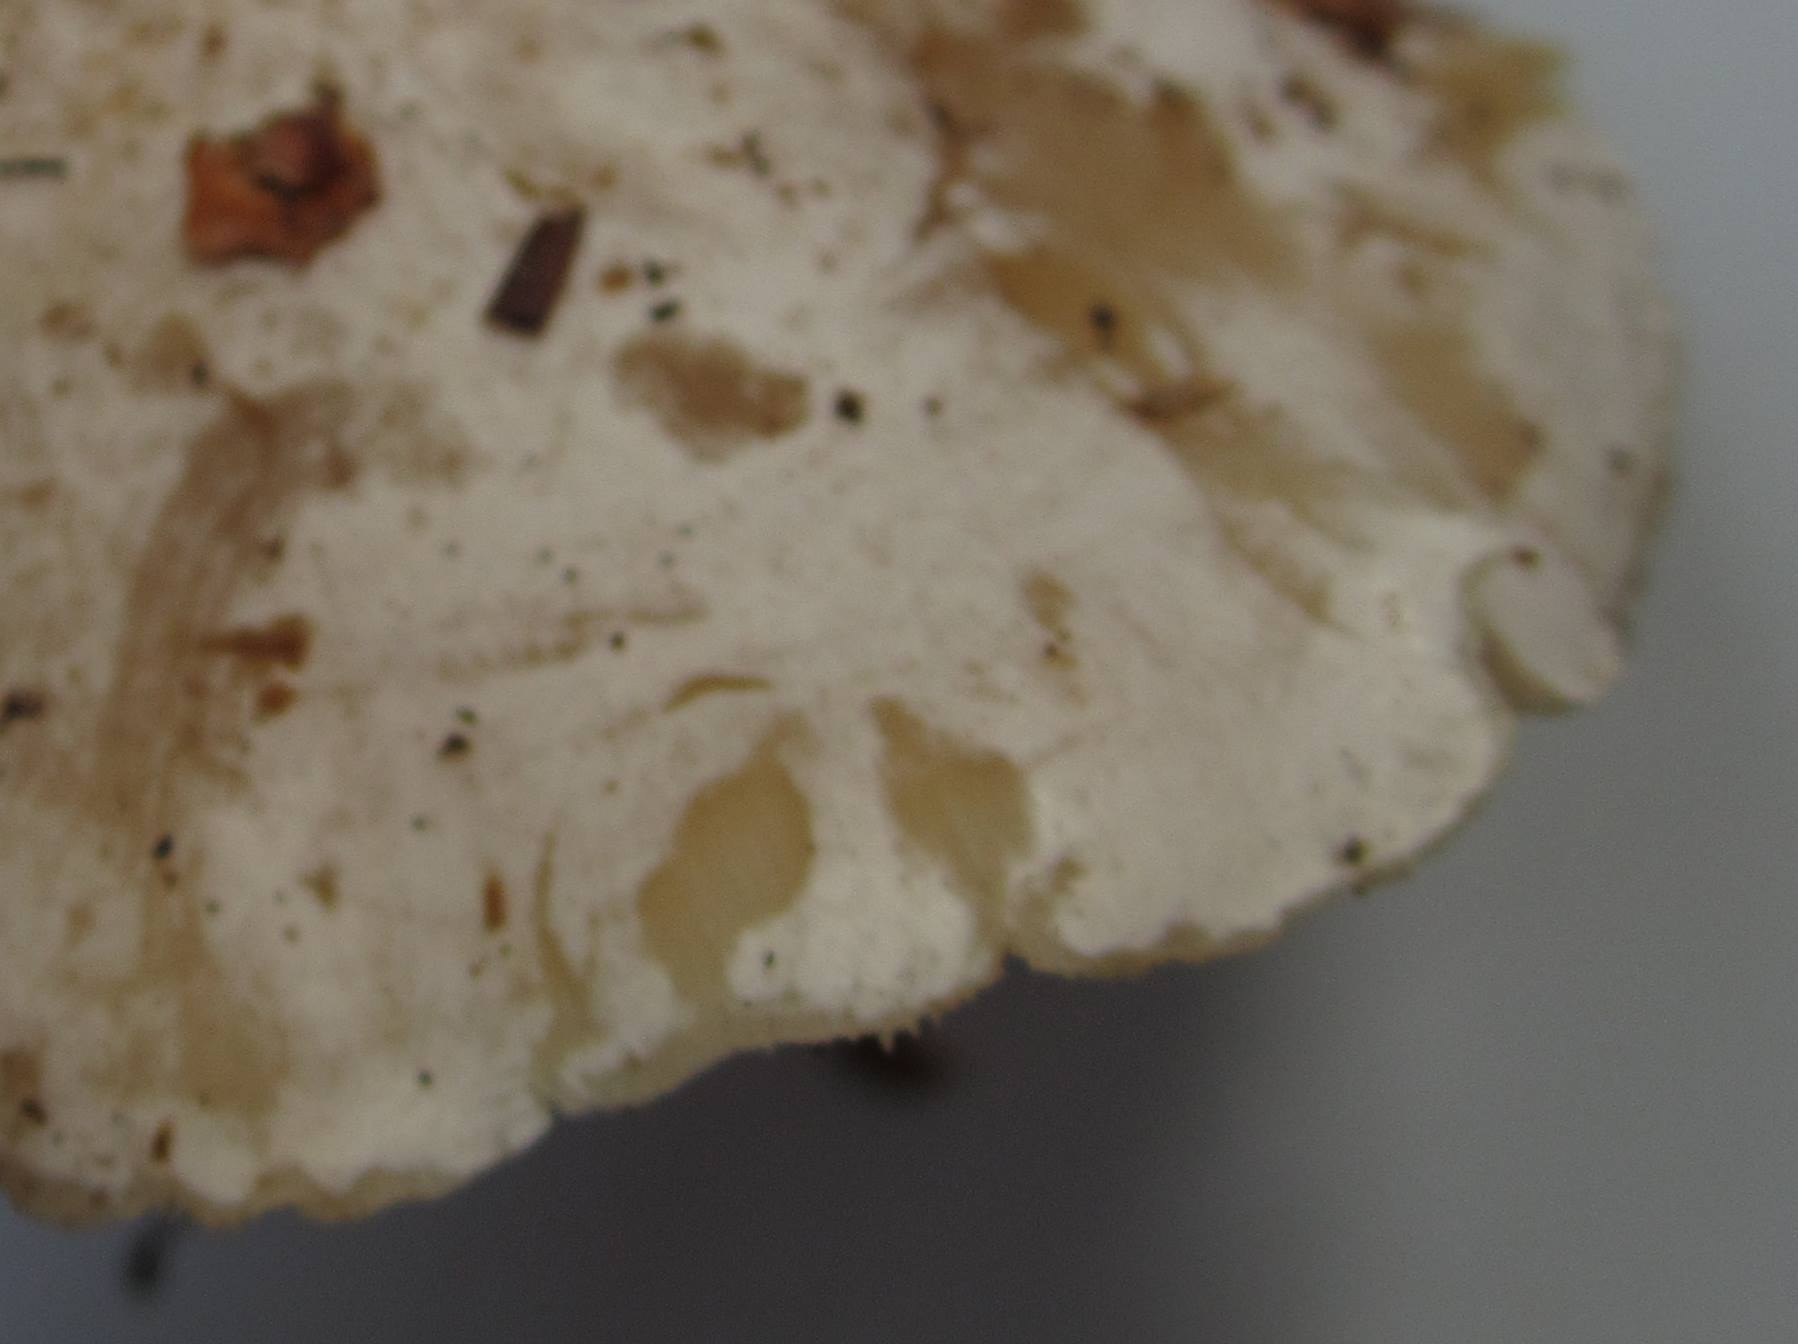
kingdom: Fungi
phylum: Basidiomycota
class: Agaricomycetes
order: Agaricales
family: Tricholomataceae
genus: Clitocybe
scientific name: Clitocybe phyllophila
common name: løv-tragthat
